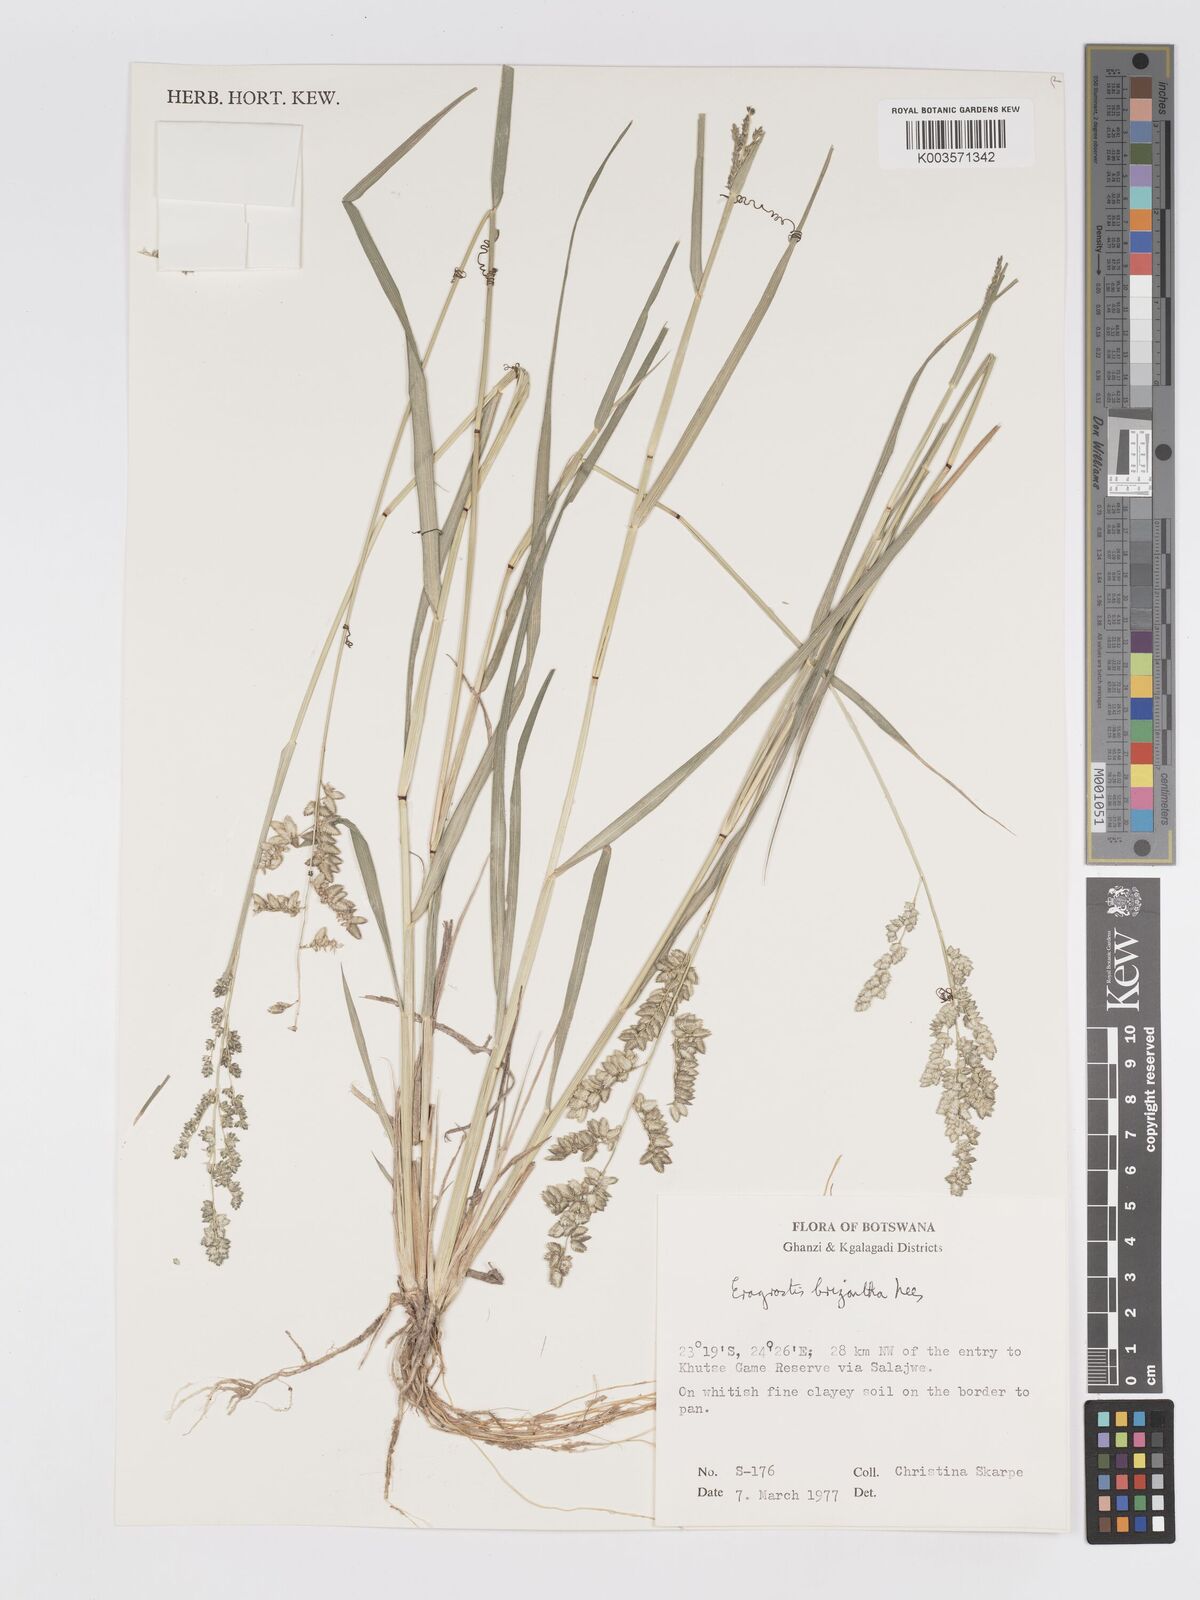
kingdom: Plantae
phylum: Tracheophyta
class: Liliopsida
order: Poales
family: Poaceae
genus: Eragrostis
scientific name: Eragrostis echinochloidea
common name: African lovegrass
